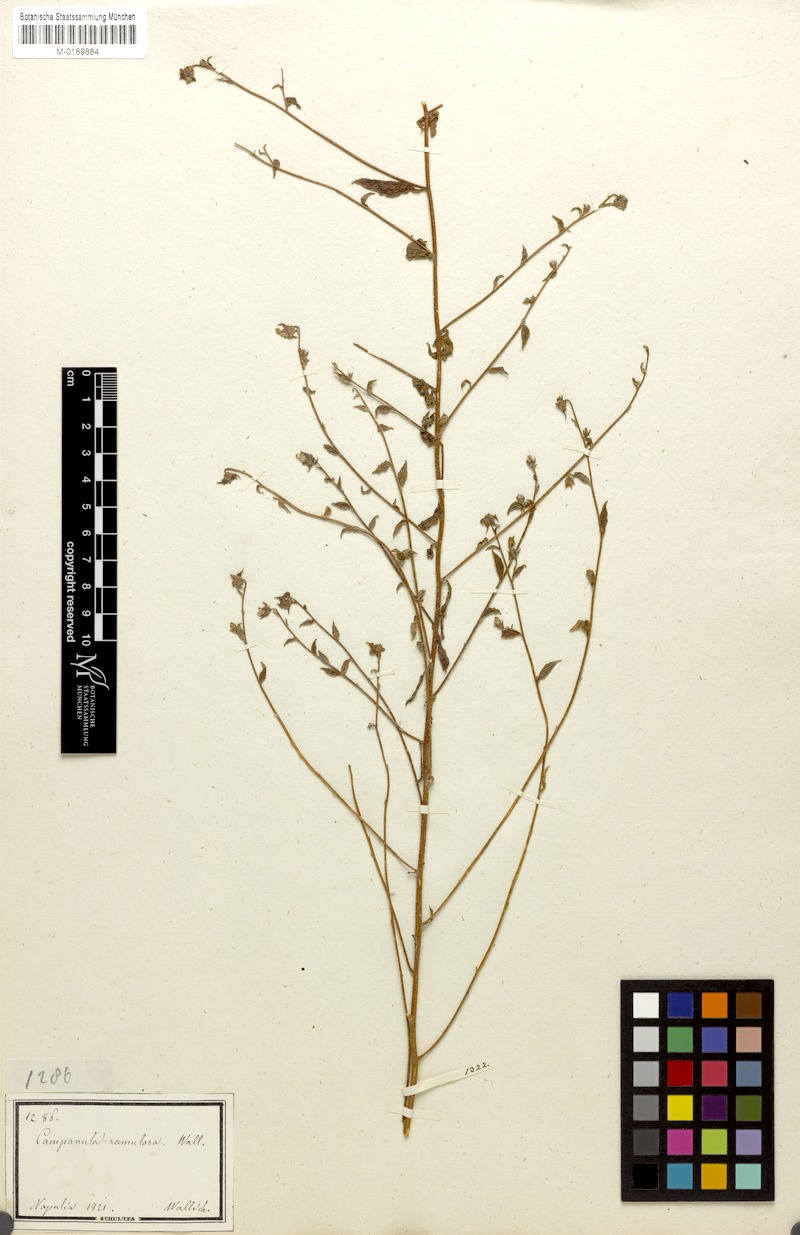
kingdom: Plantae
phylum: Tracheophyta
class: Magnoliopsida
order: Asterales
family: Campanulaceae
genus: Campanula
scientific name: Campanula pallida
